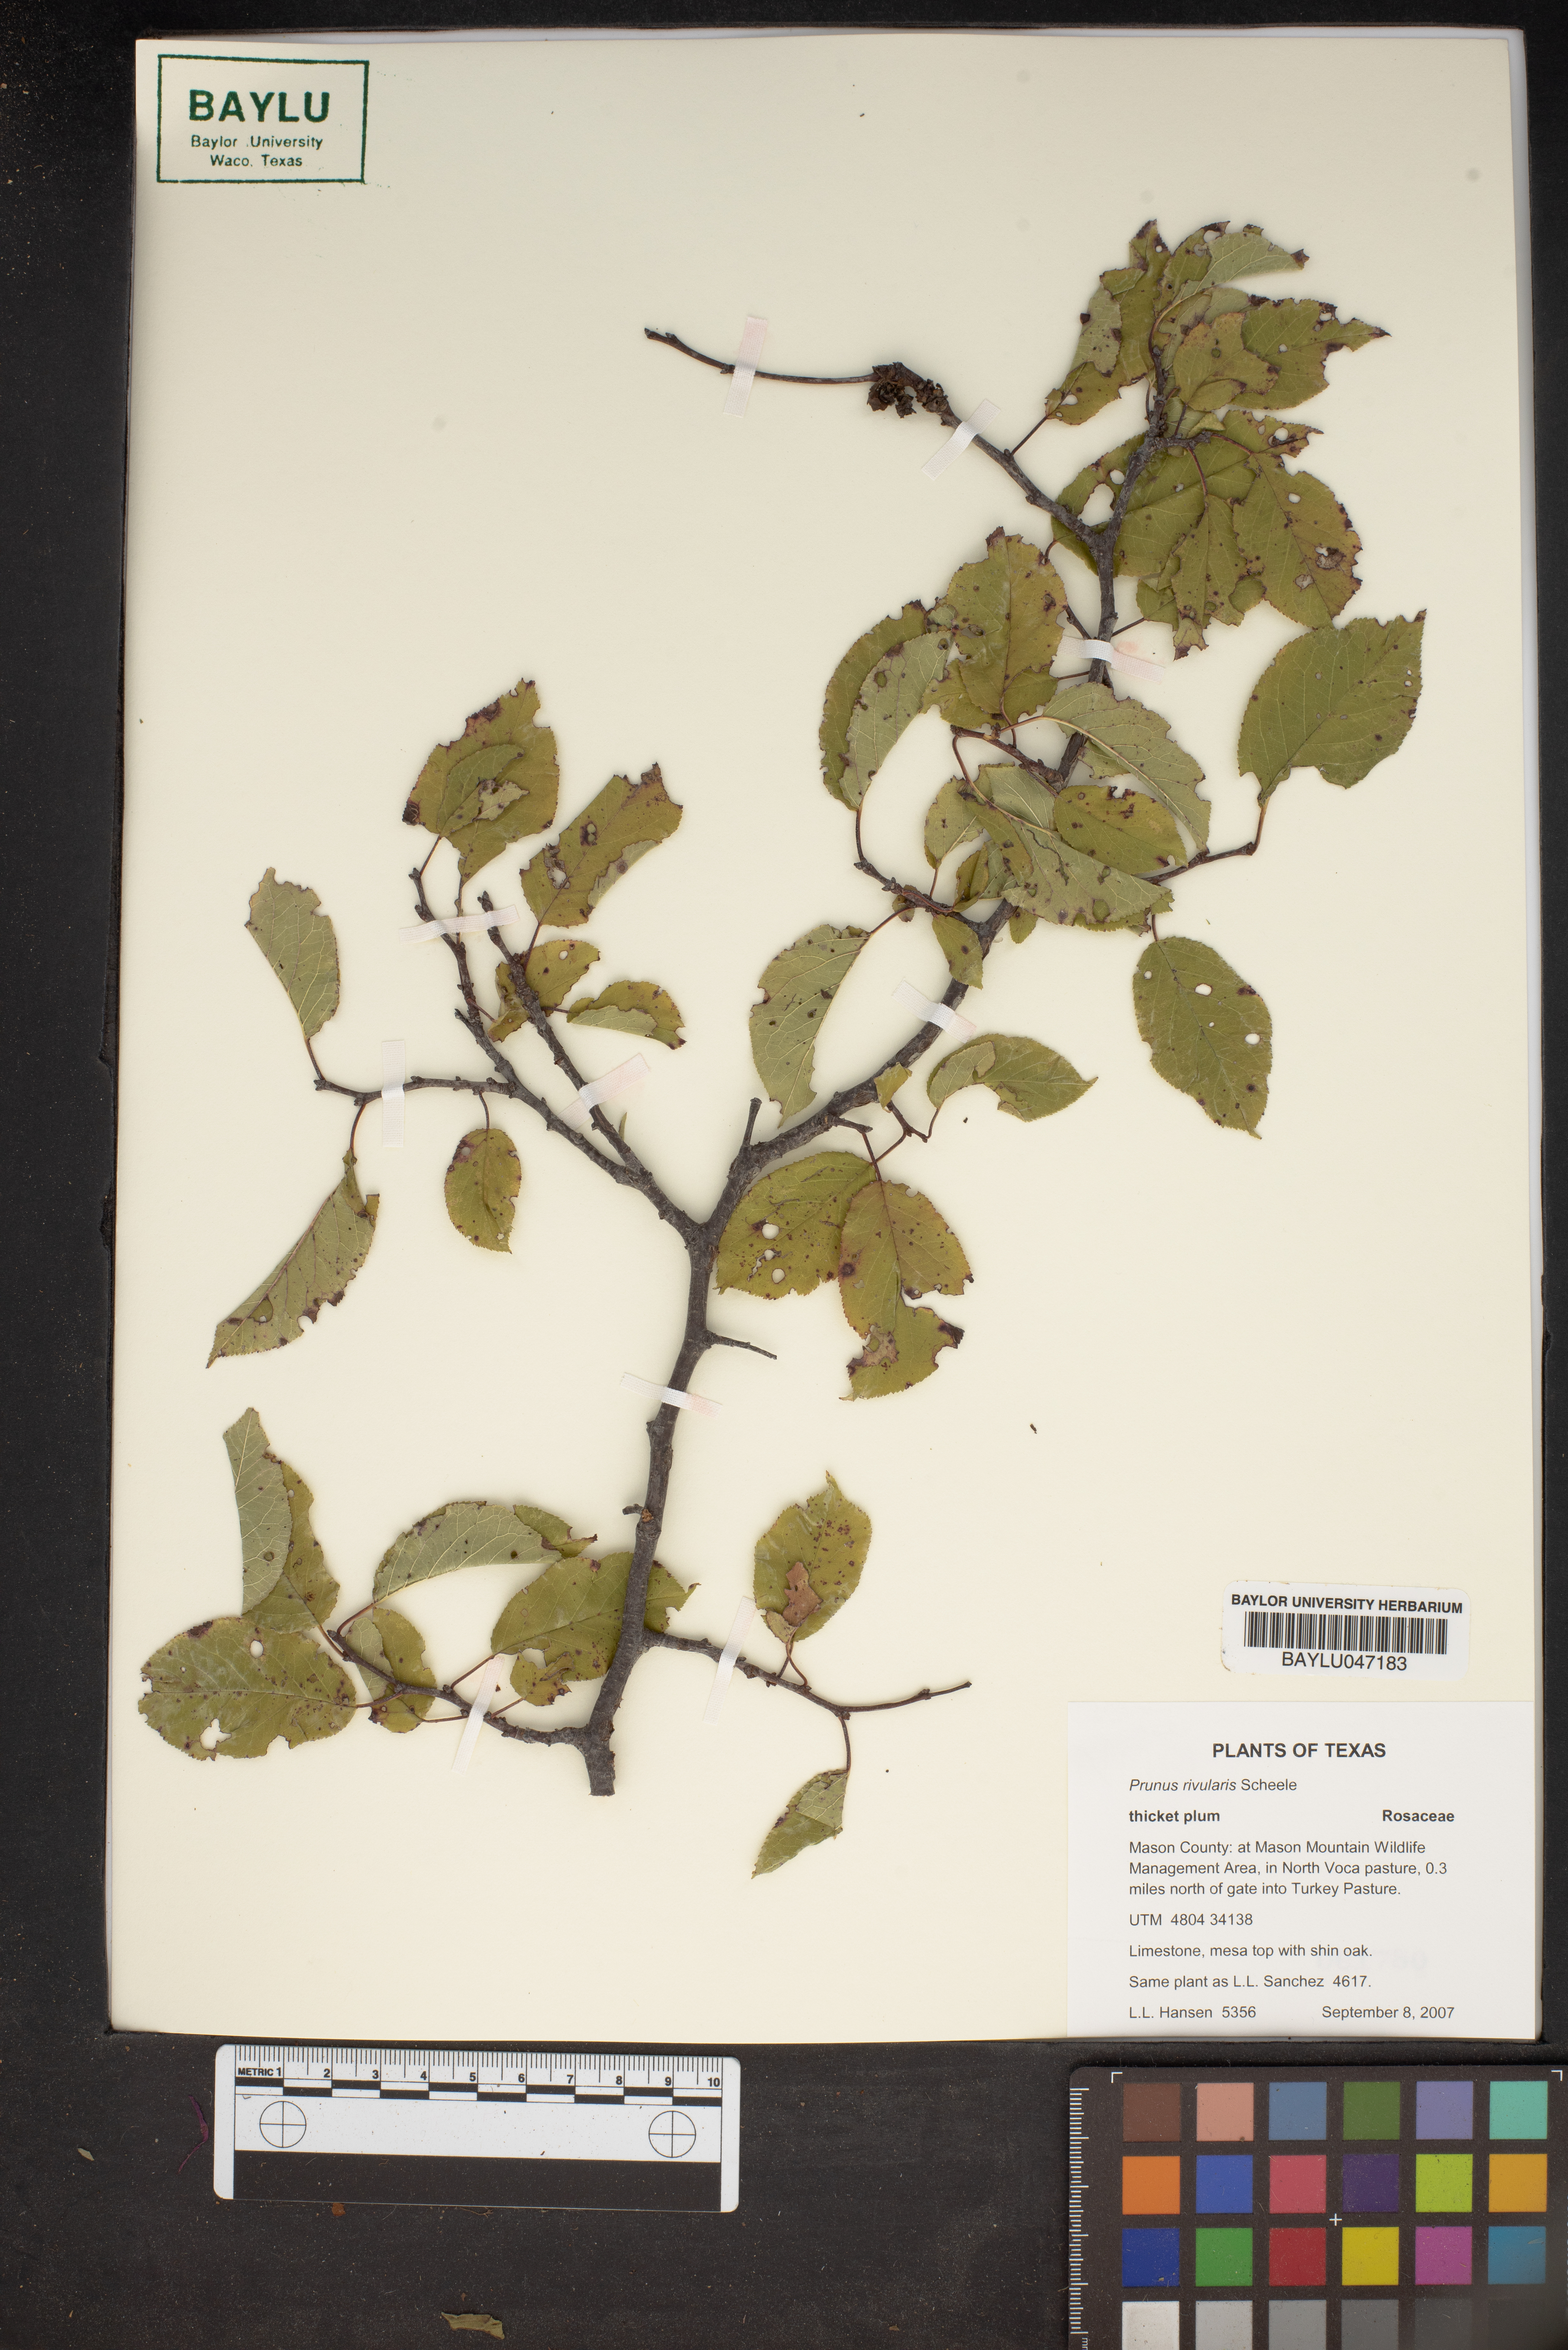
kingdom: Plantae
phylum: Tracheophyta
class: Magnoliopsida
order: Rosales
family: Rosaceae
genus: Prunus
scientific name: Prunus rivularis
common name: Creek plum
